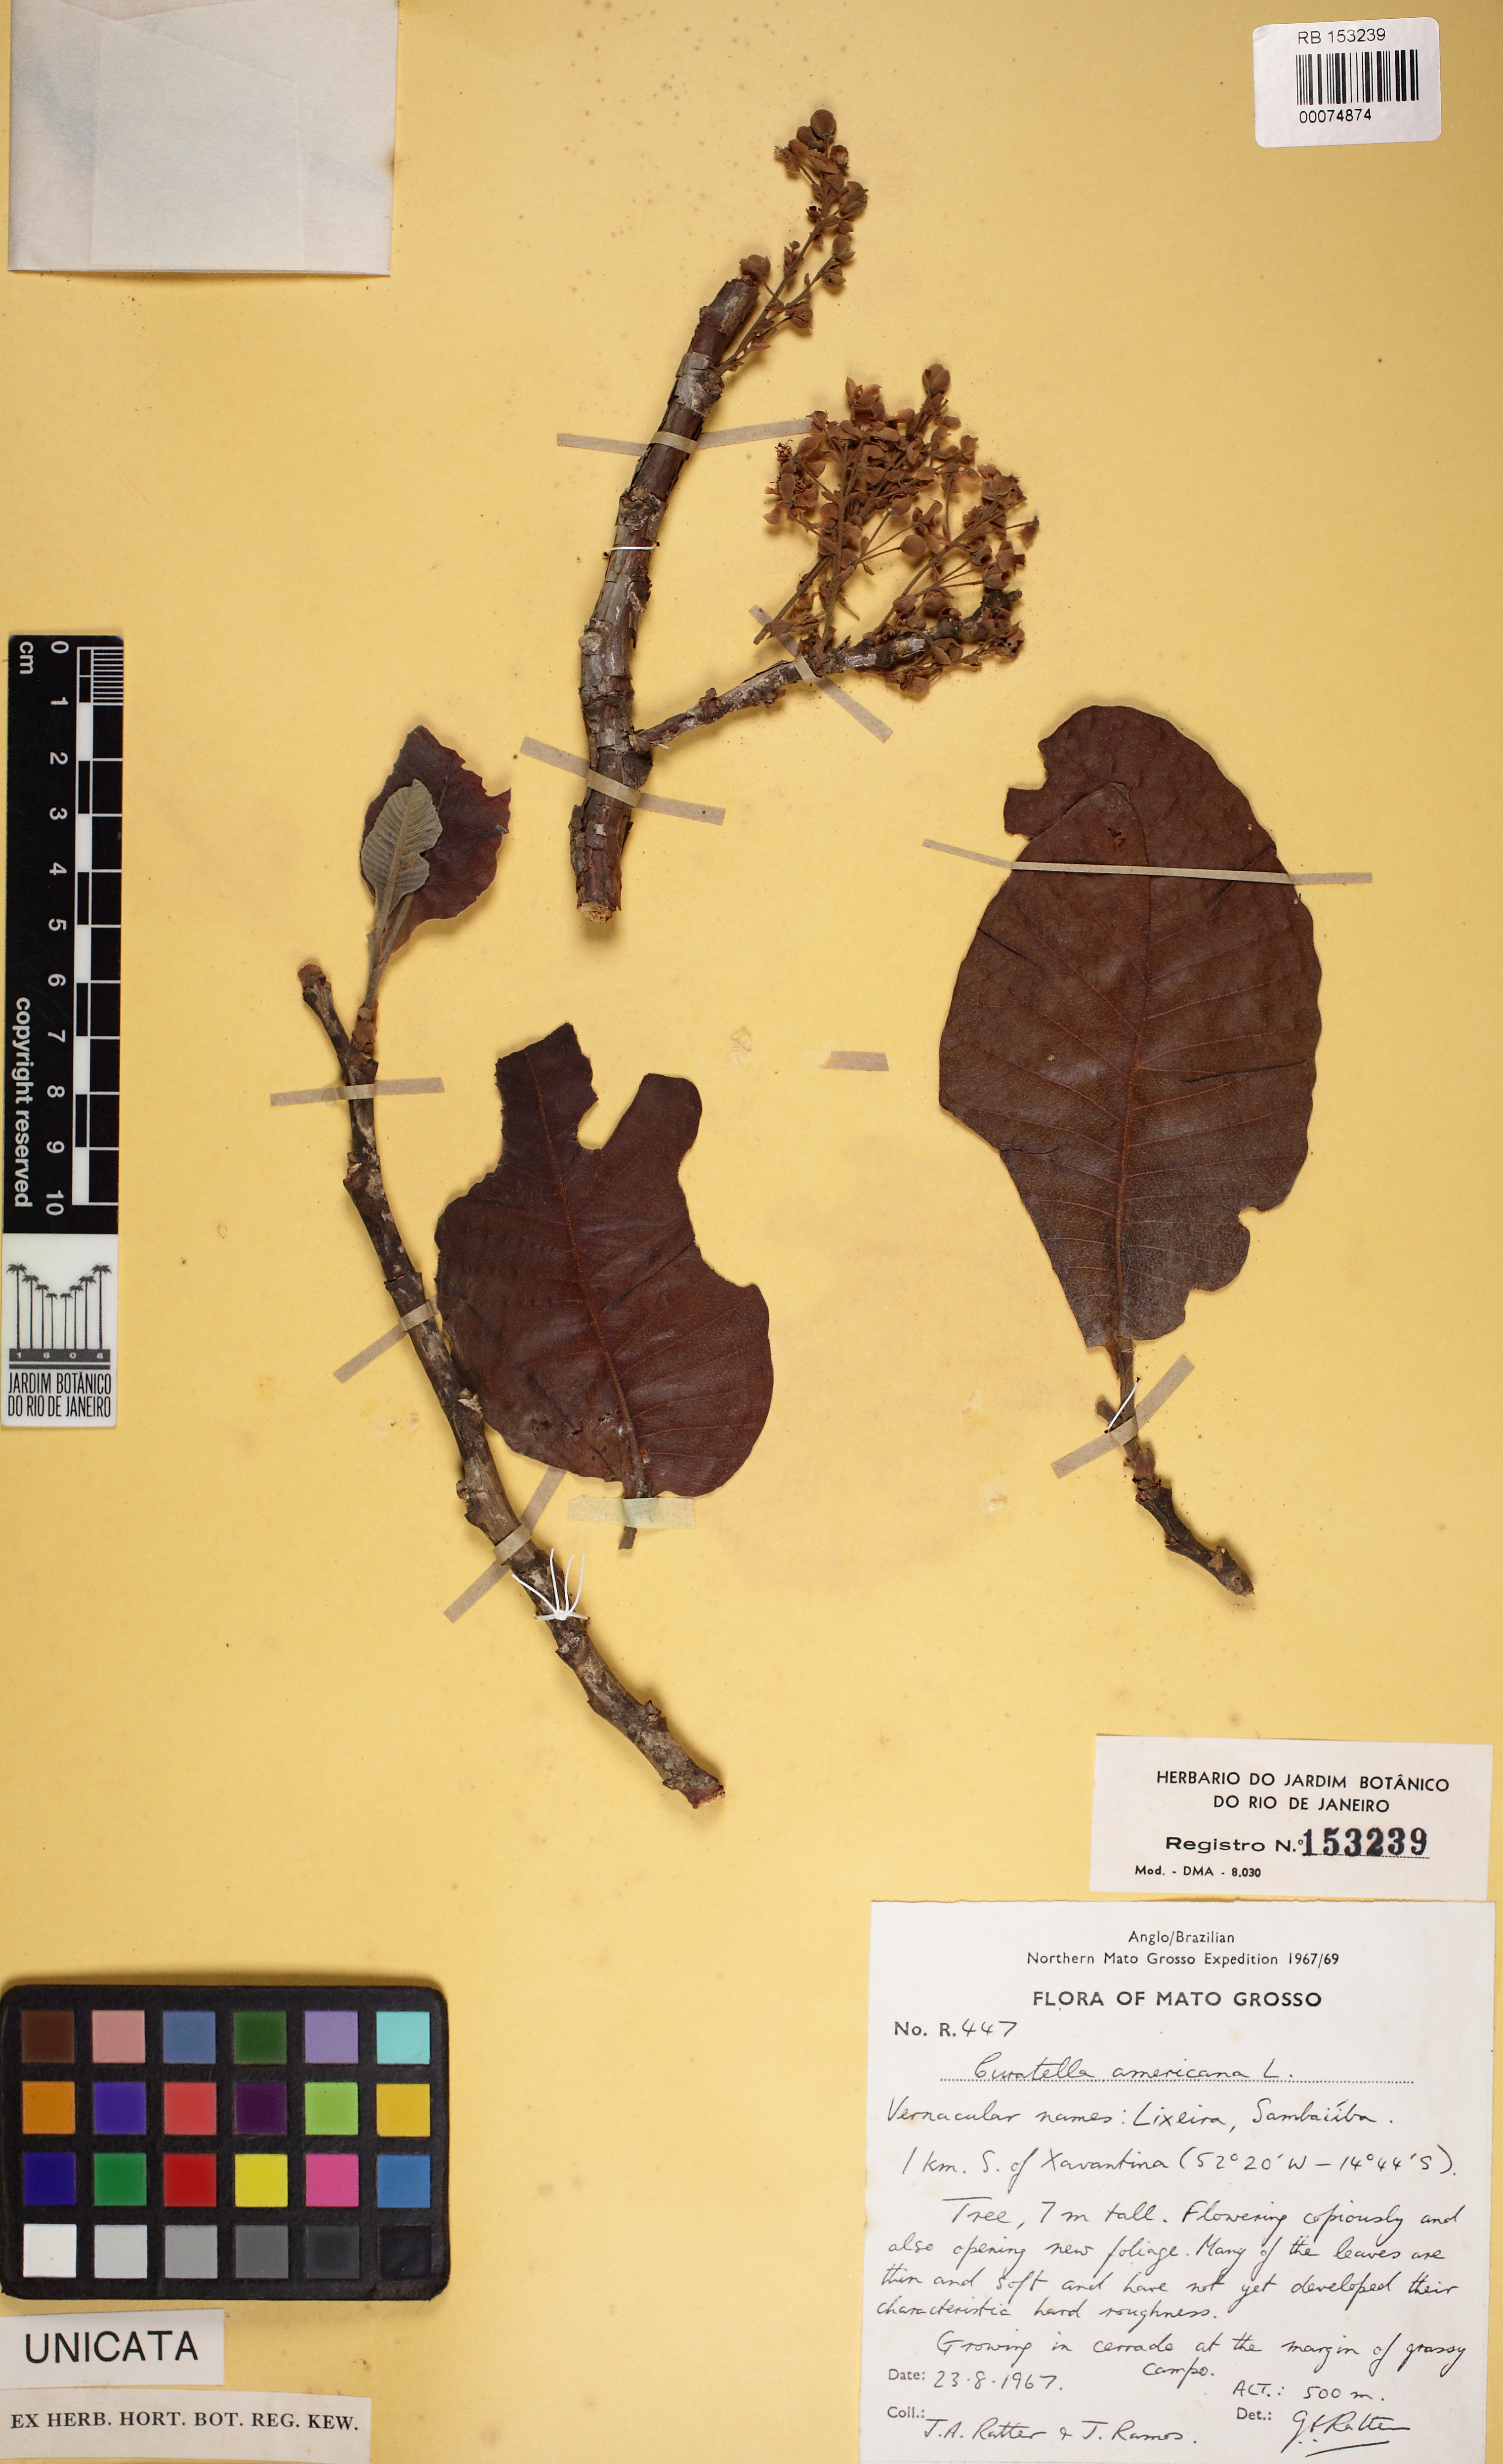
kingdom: Plantae
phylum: Tracheophyta
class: Magnoliopsida
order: Dilleniales
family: Dilleniaceae
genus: Curatella
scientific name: Curatella americana
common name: Sandpaper tree
